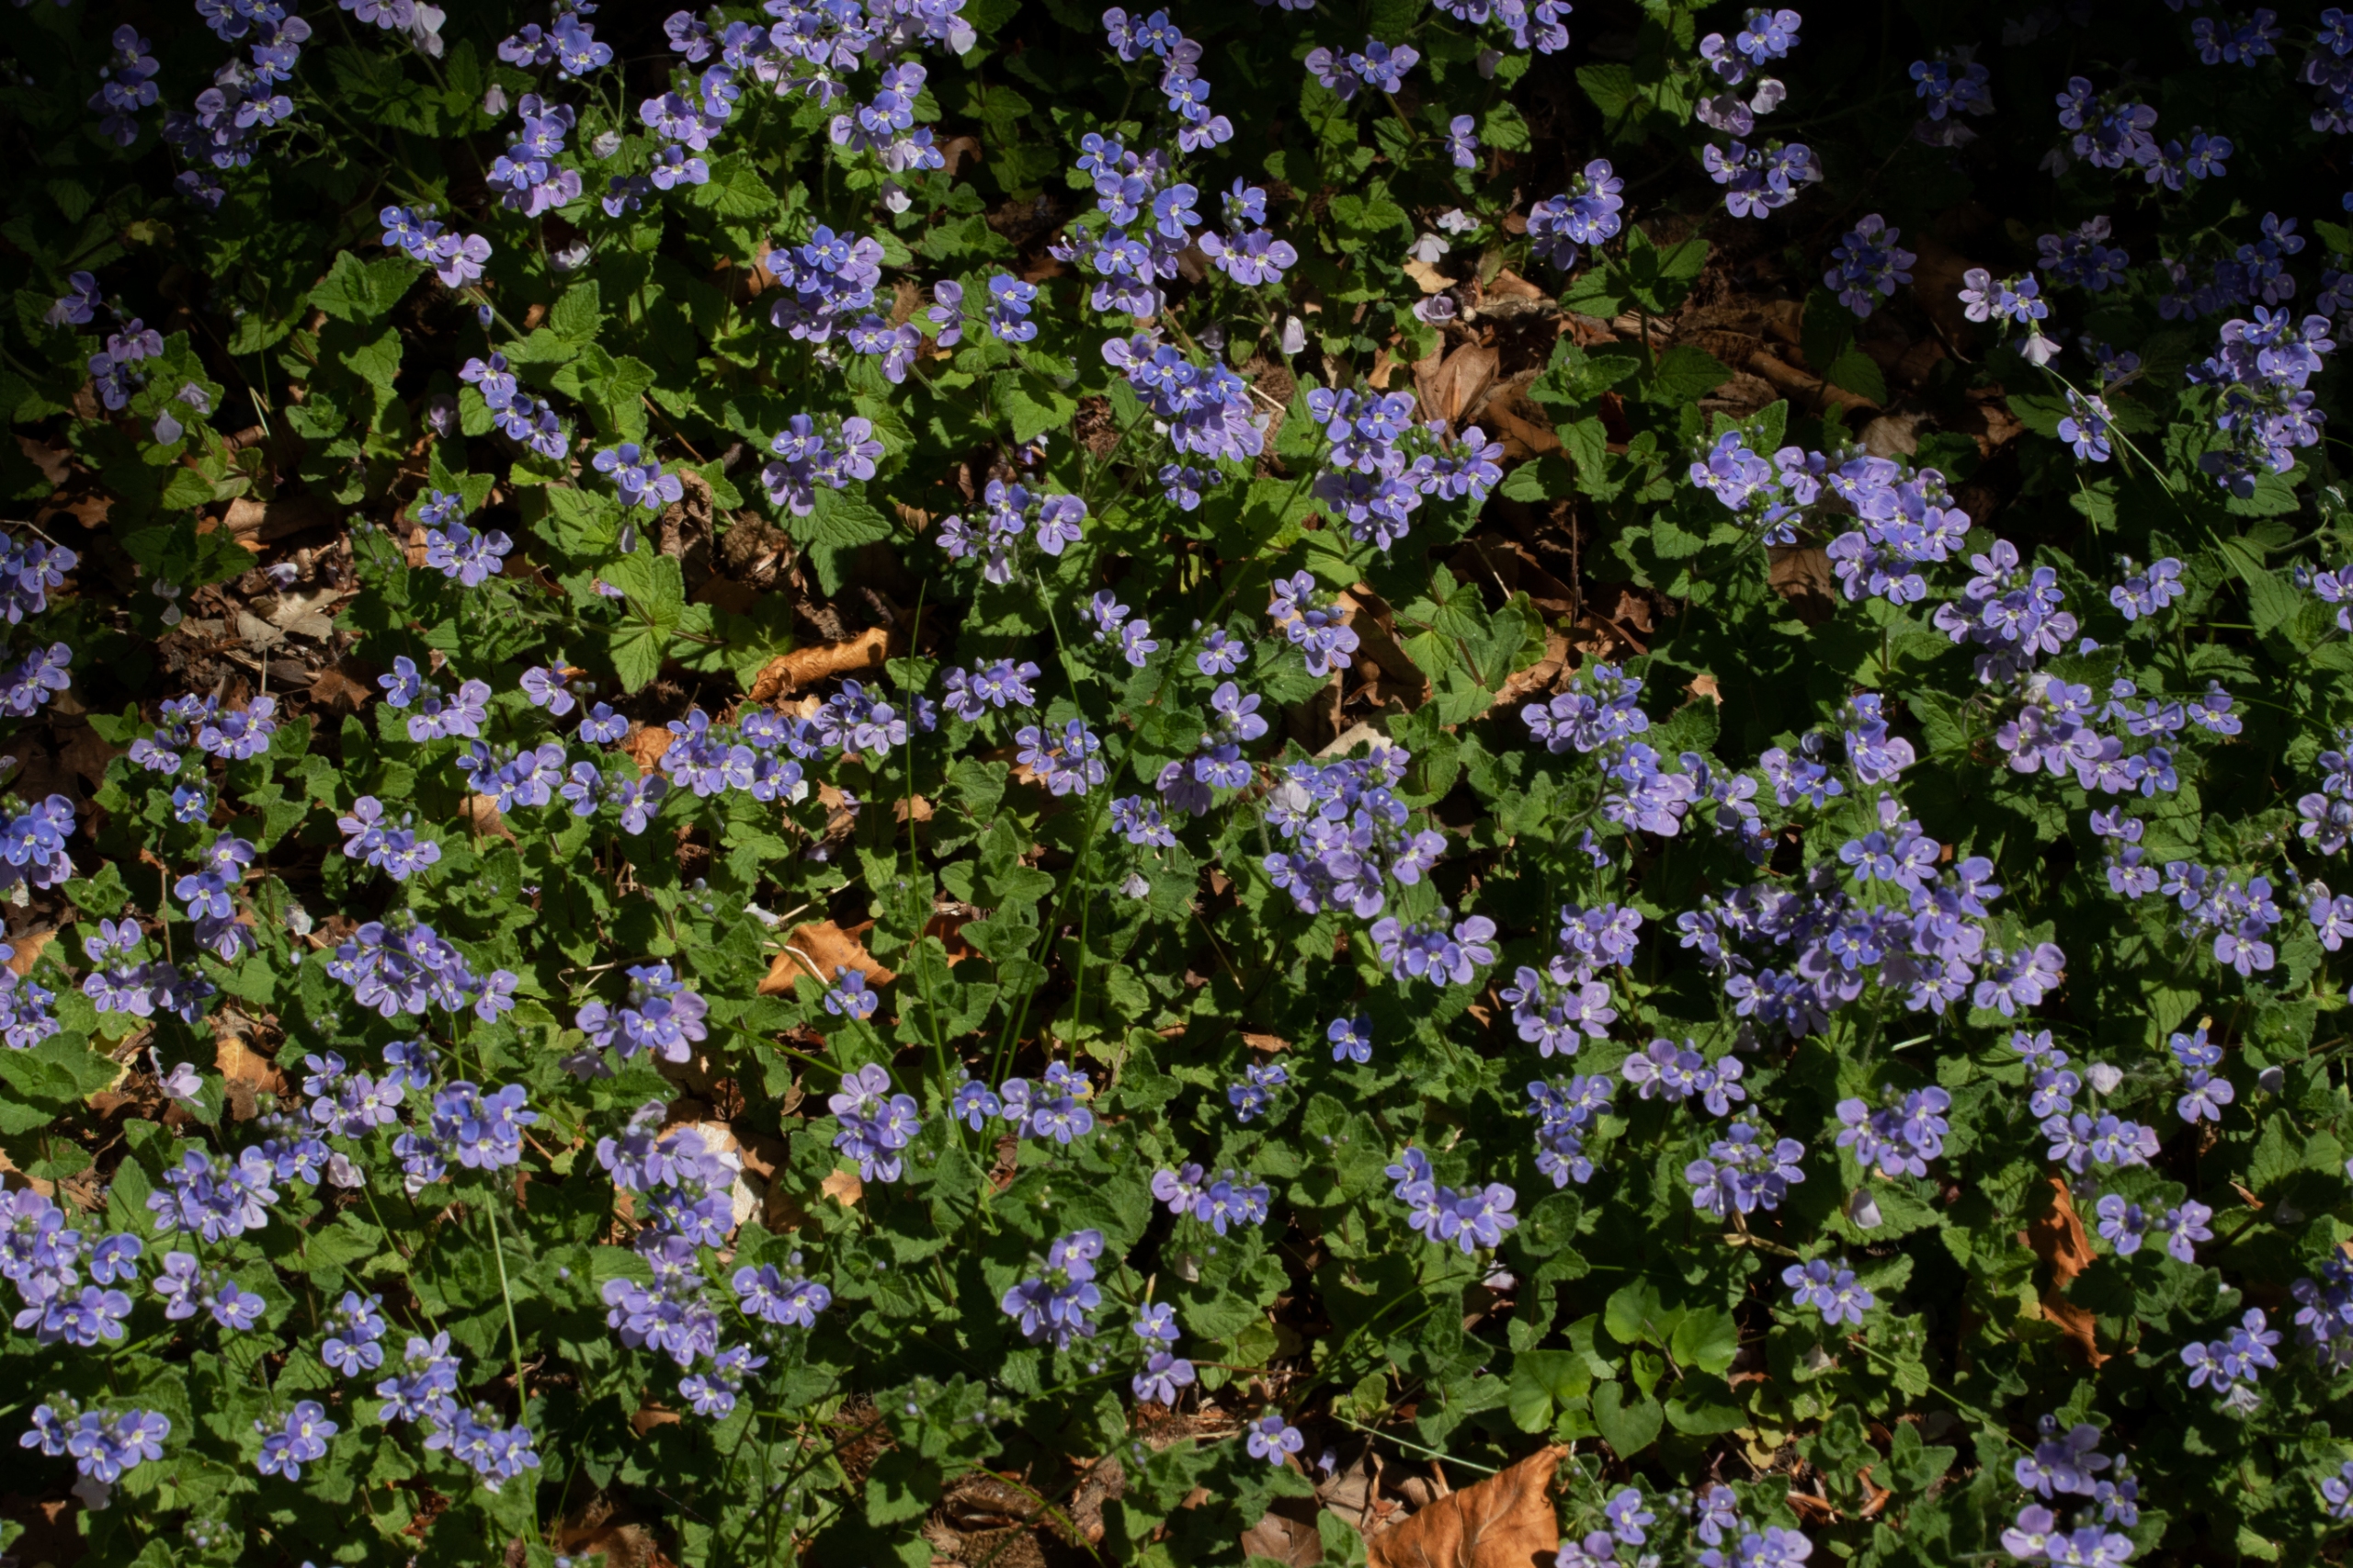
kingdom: Plantae
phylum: Tracheophyta
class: Magnoliopsida
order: Lamiales
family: Plantaginaceae
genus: Veronica
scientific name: Veronica chamaedrys
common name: Tveskægget ærenpris
